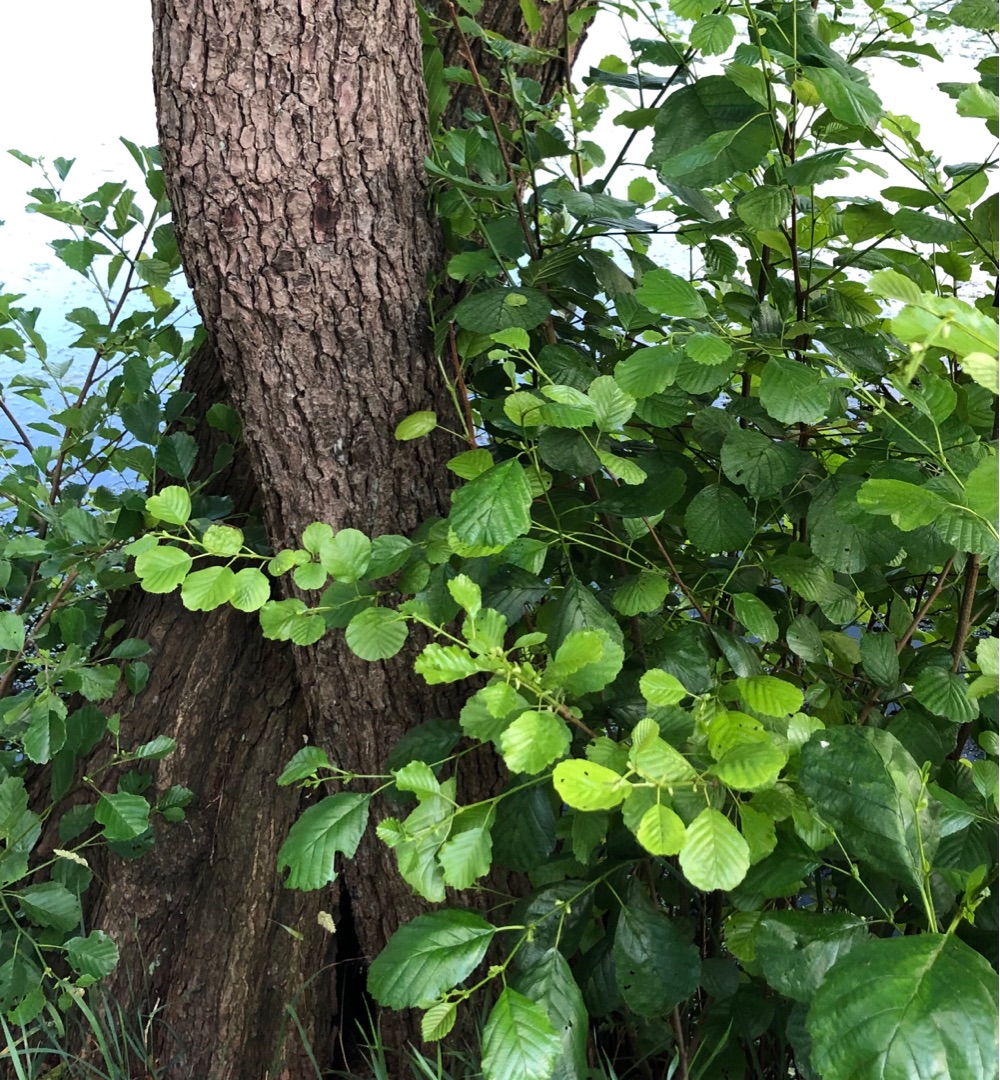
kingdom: Plantae
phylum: Tracheophyta
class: Magnoliopsida
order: Fagales
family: Betulaceae
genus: Alnus
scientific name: Alnus glutinosa
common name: Rød-el
